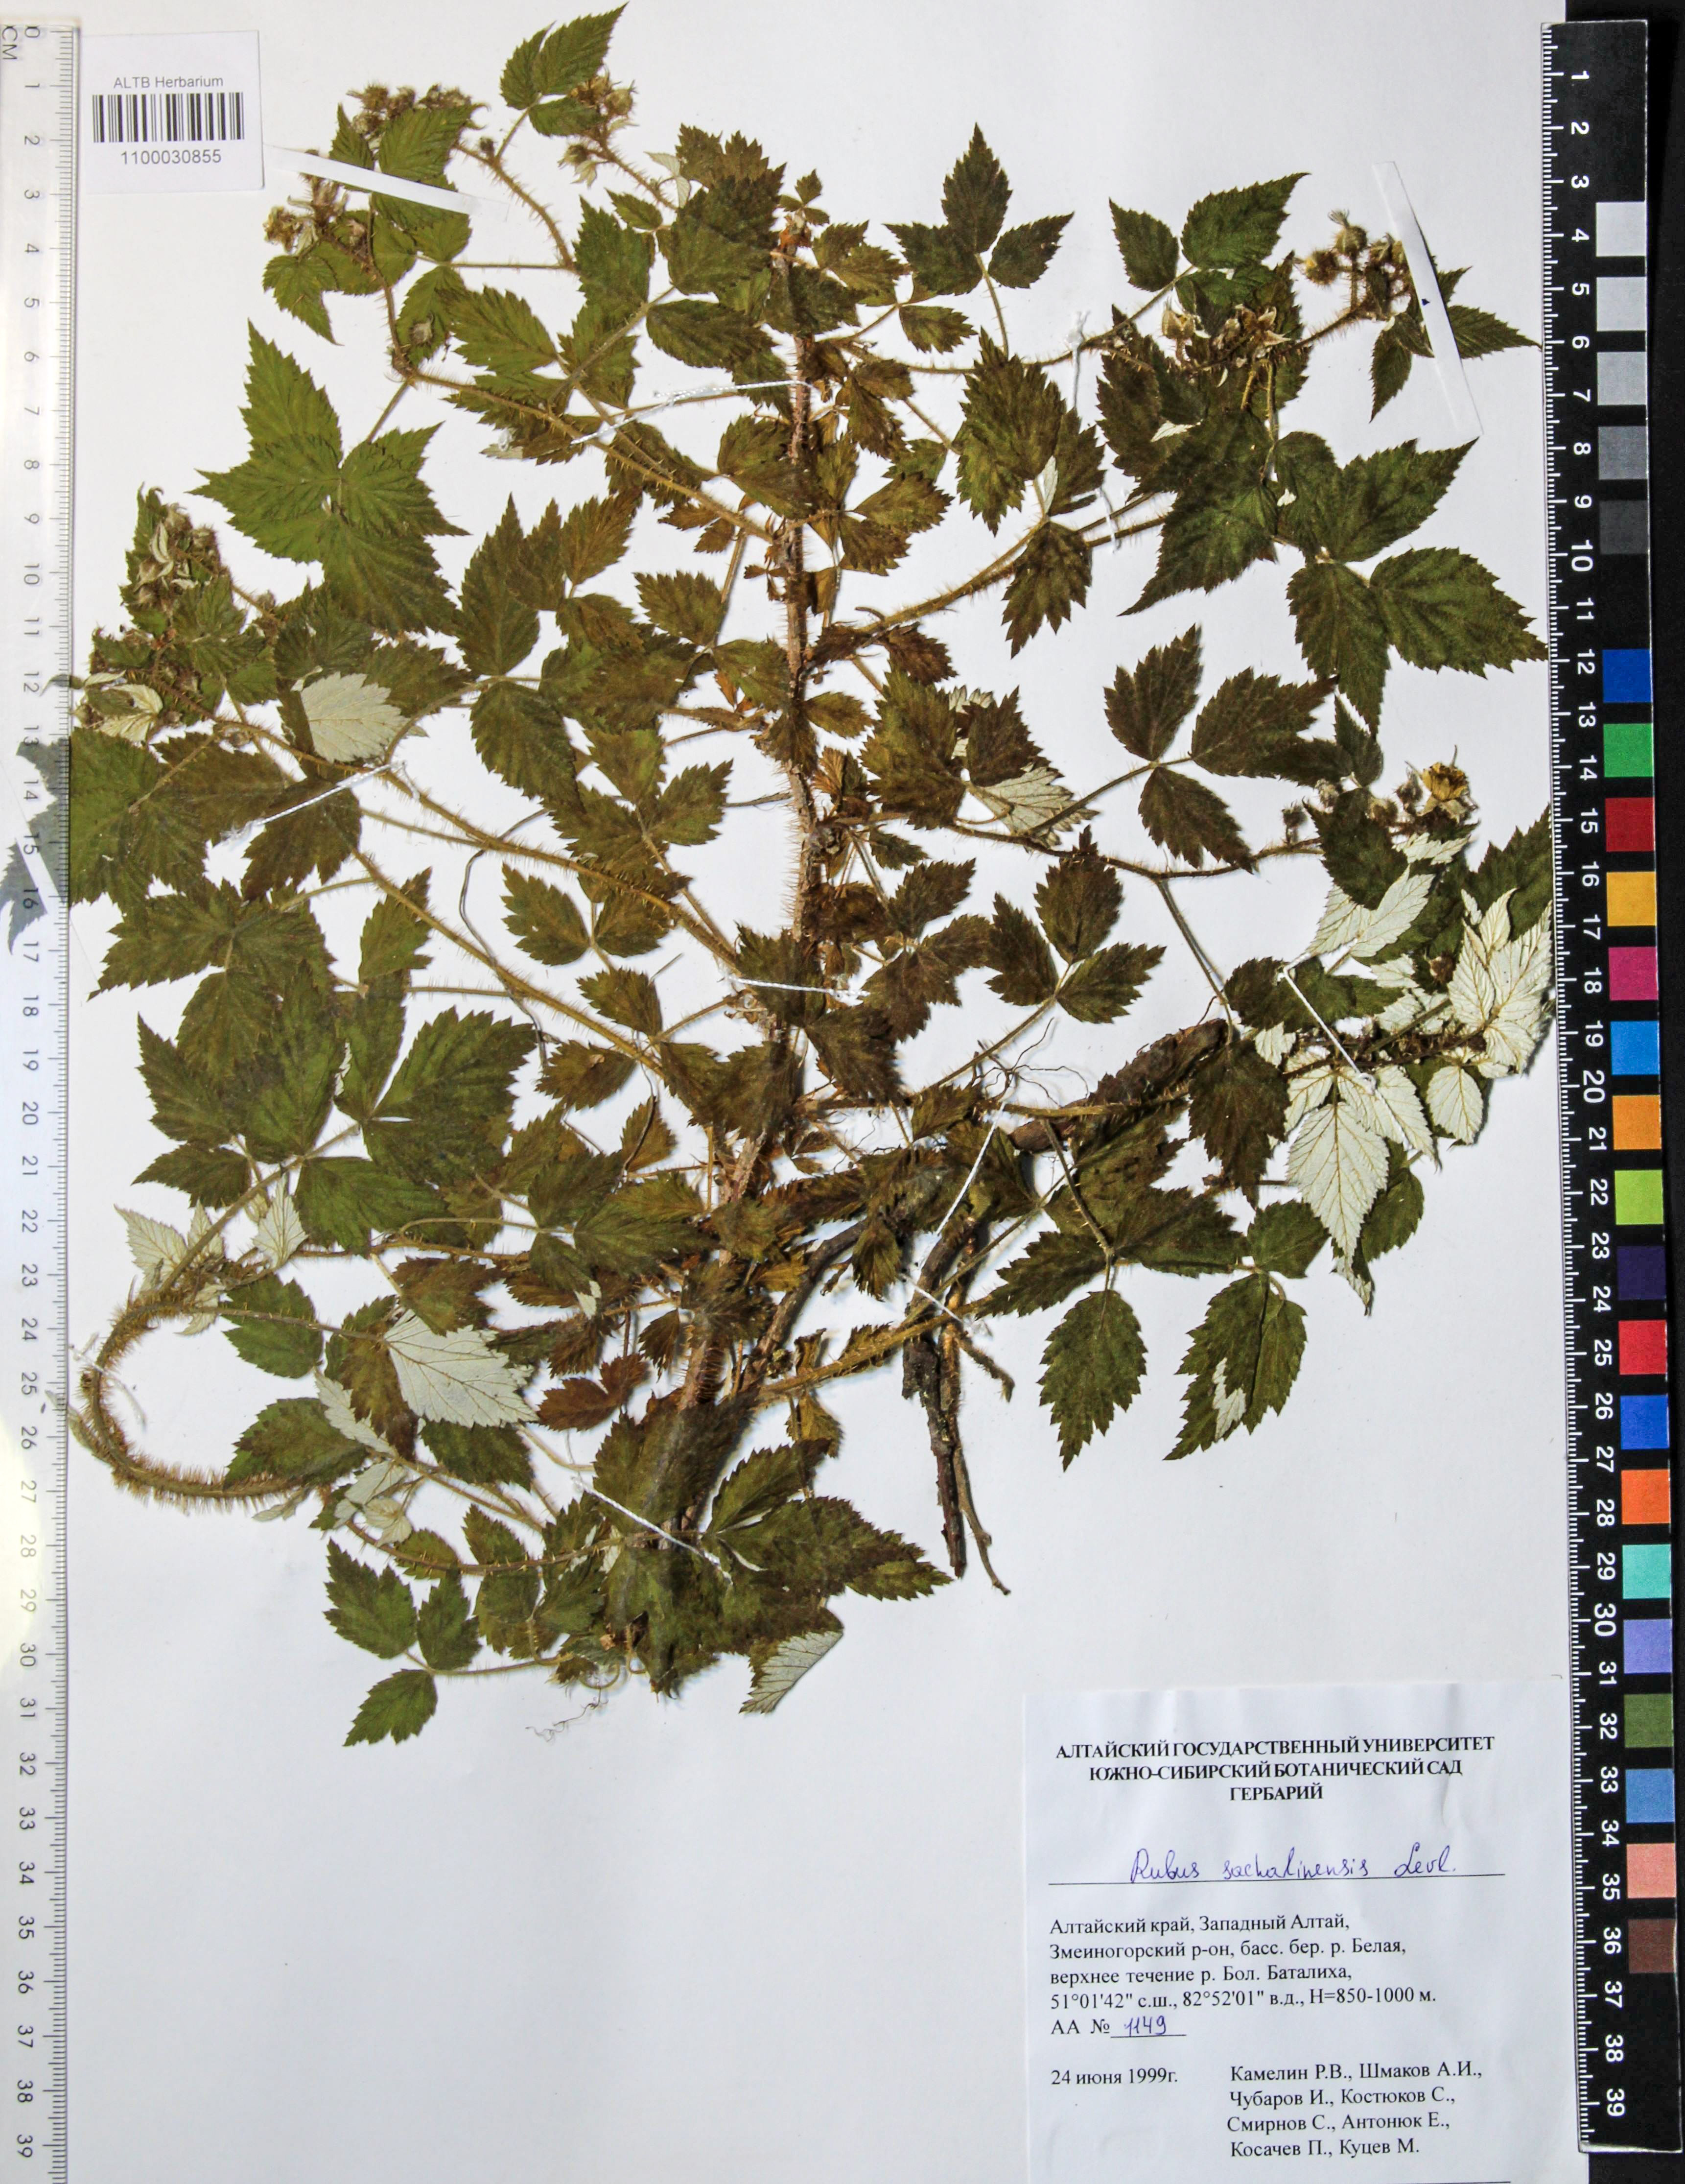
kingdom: Plantae
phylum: Tracheophyta
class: Magnoliopsida
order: Rosales
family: Rosaceae
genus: Rubus
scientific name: Rubus sachalinensis
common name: Red raspberry
